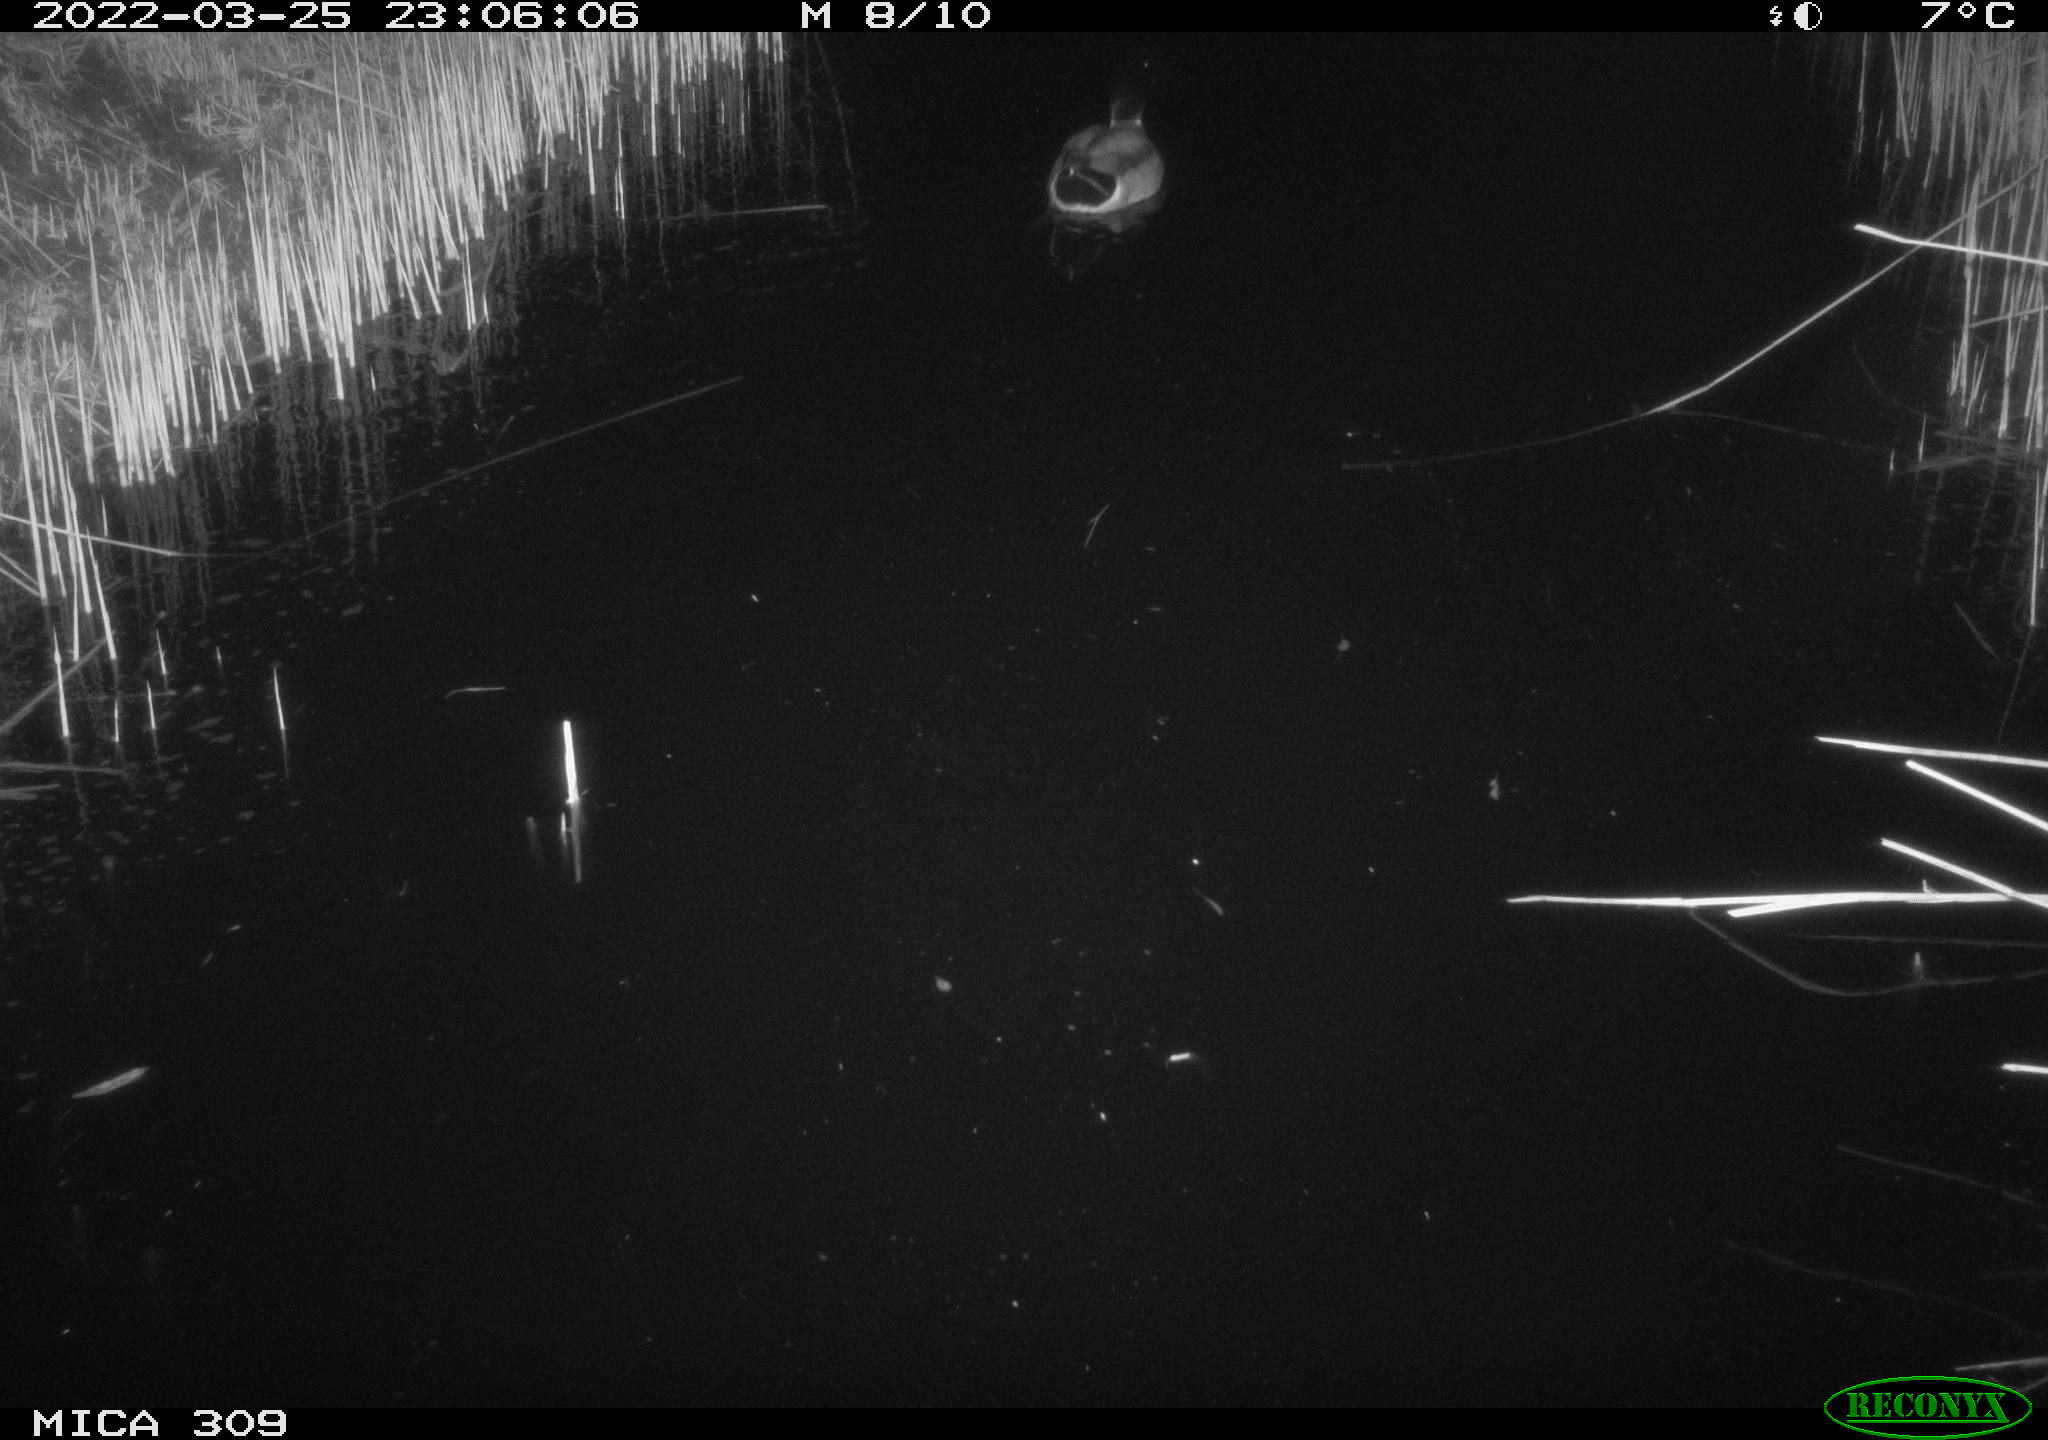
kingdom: Animalia
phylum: Chordata
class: Aves
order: Anseriformes
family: Anatidae
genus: Anas
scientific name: Anas platyrhynchos
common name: Mallard
